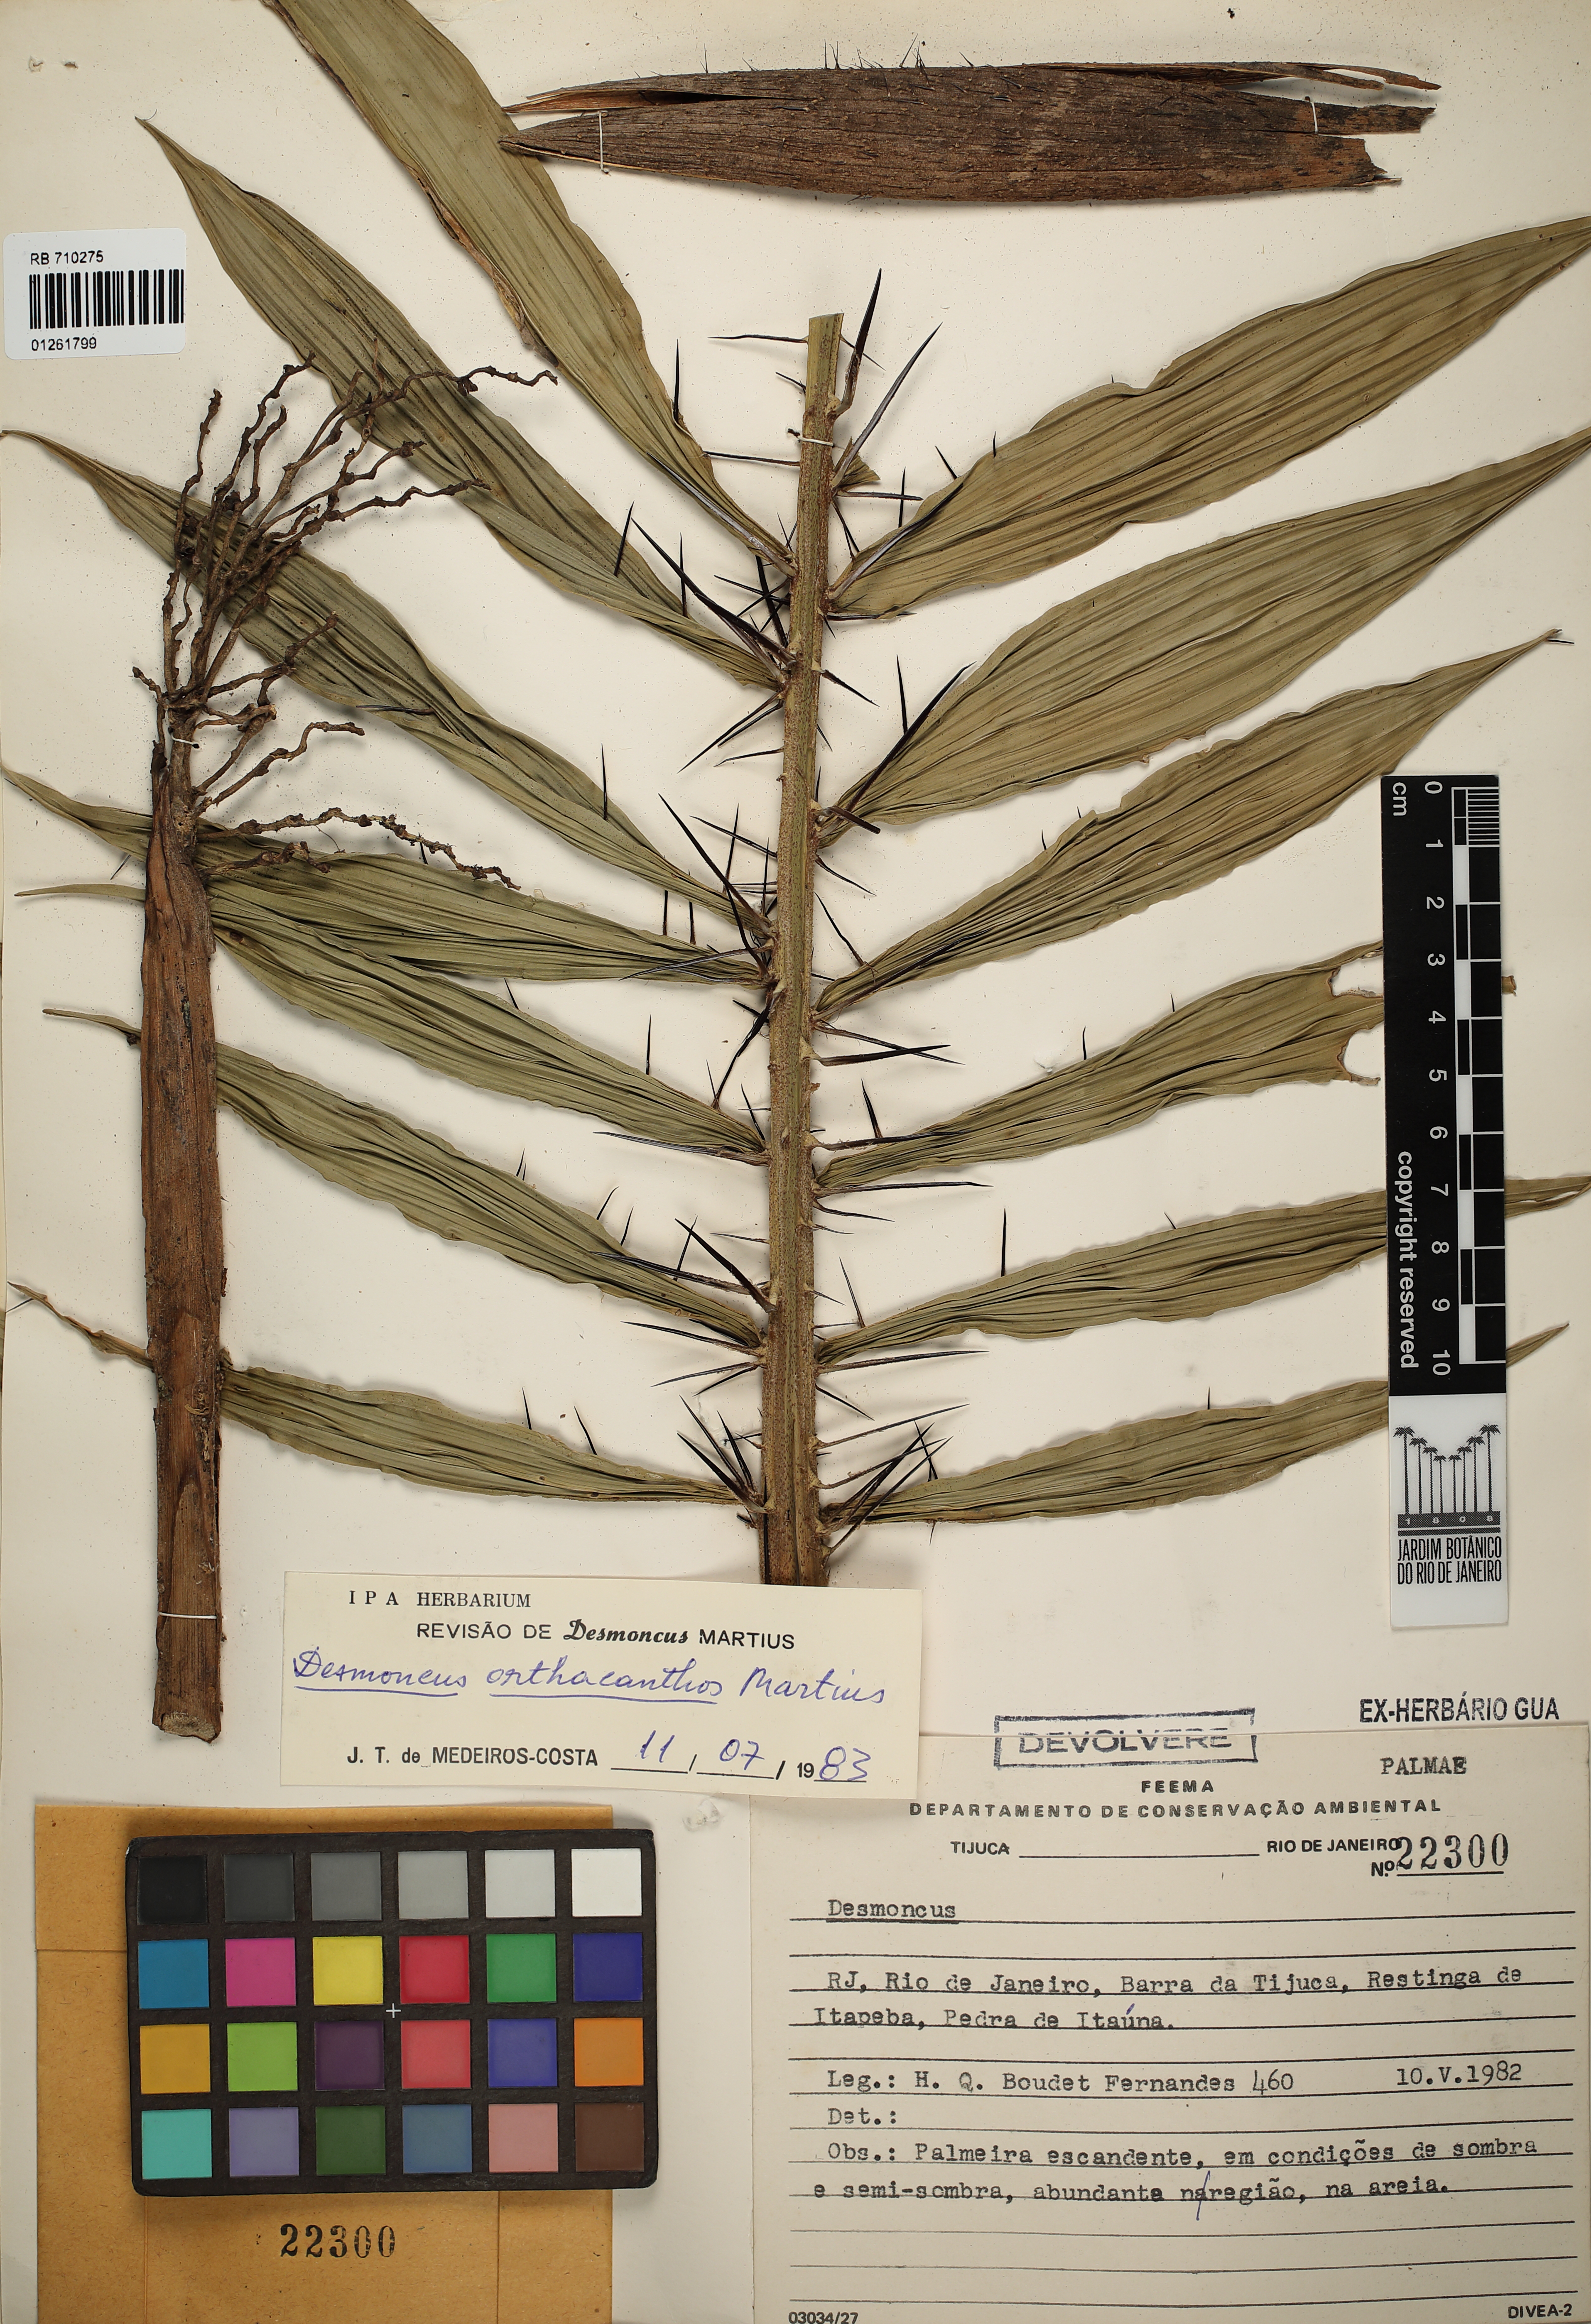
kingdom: Plantae
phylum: Tracheophyta
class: Liliopsida
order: Arecales
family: Arecaceae
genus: Desmoncus
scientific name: Desmoncus orthacanthos
